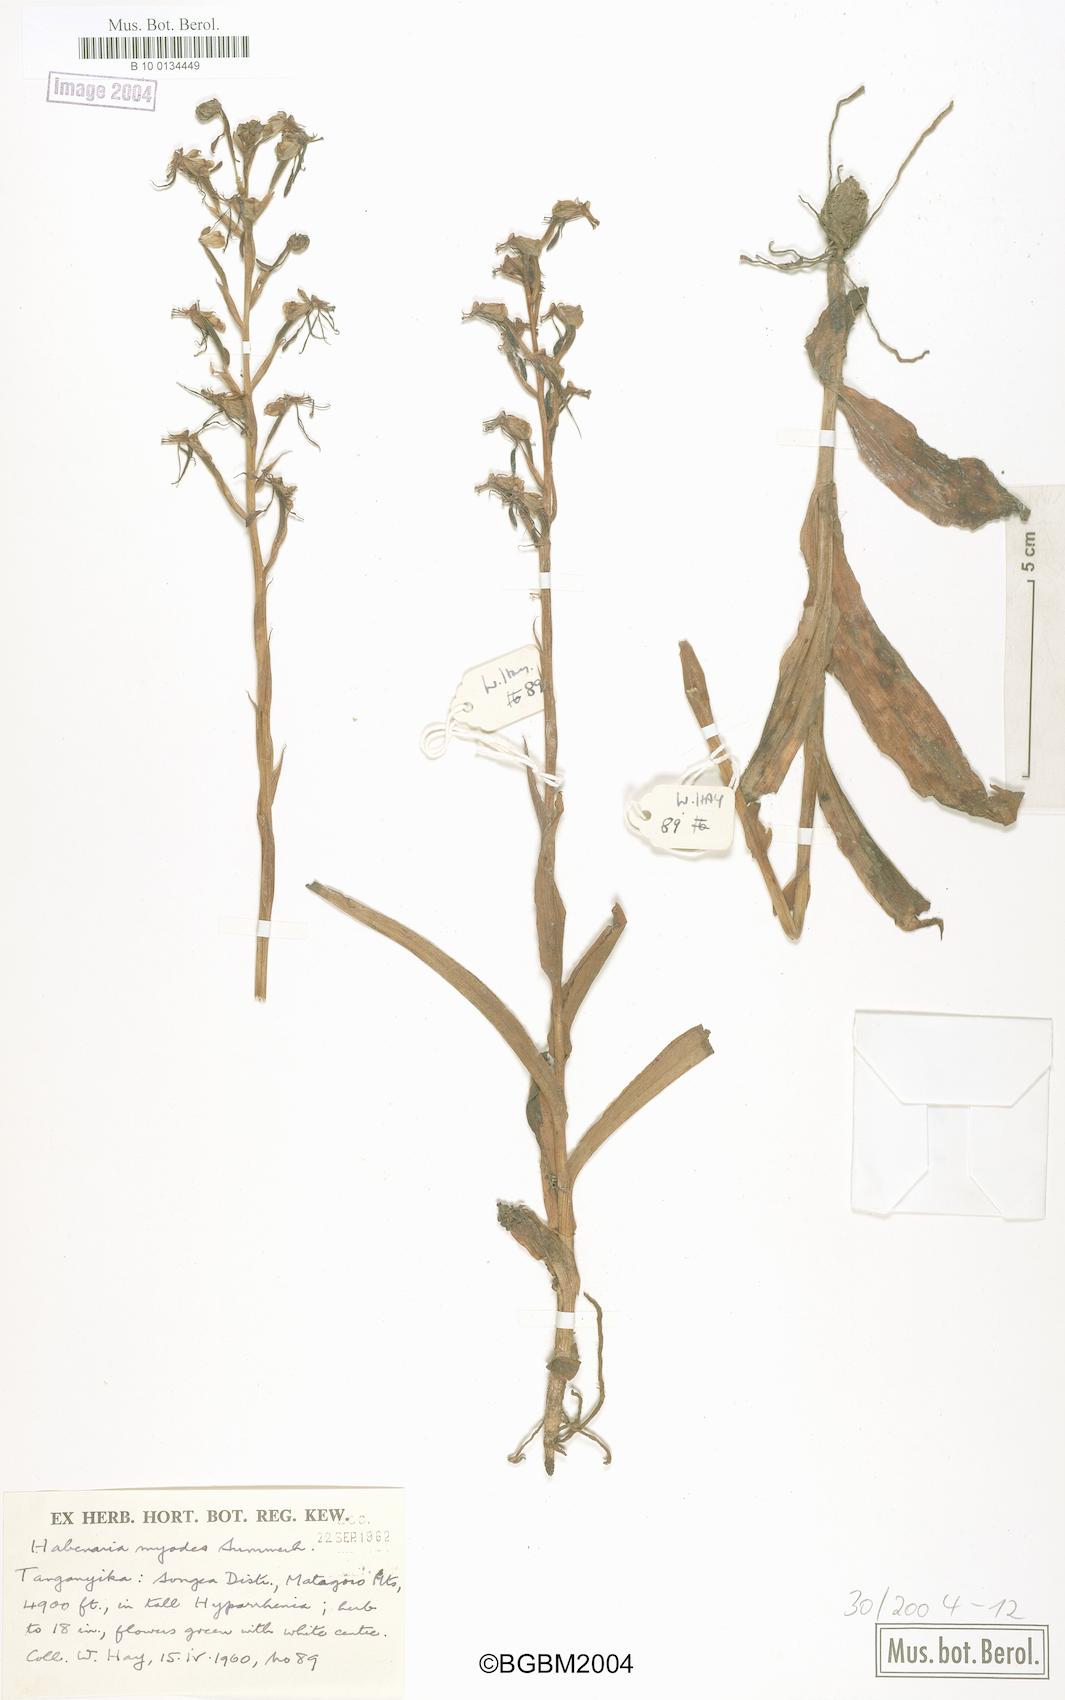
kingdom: Plantae
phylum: Tracheophyta
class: Liliopsida
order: Asparagales
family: Orchidaceae
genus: Habenaria
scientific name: Habenaria myodes
